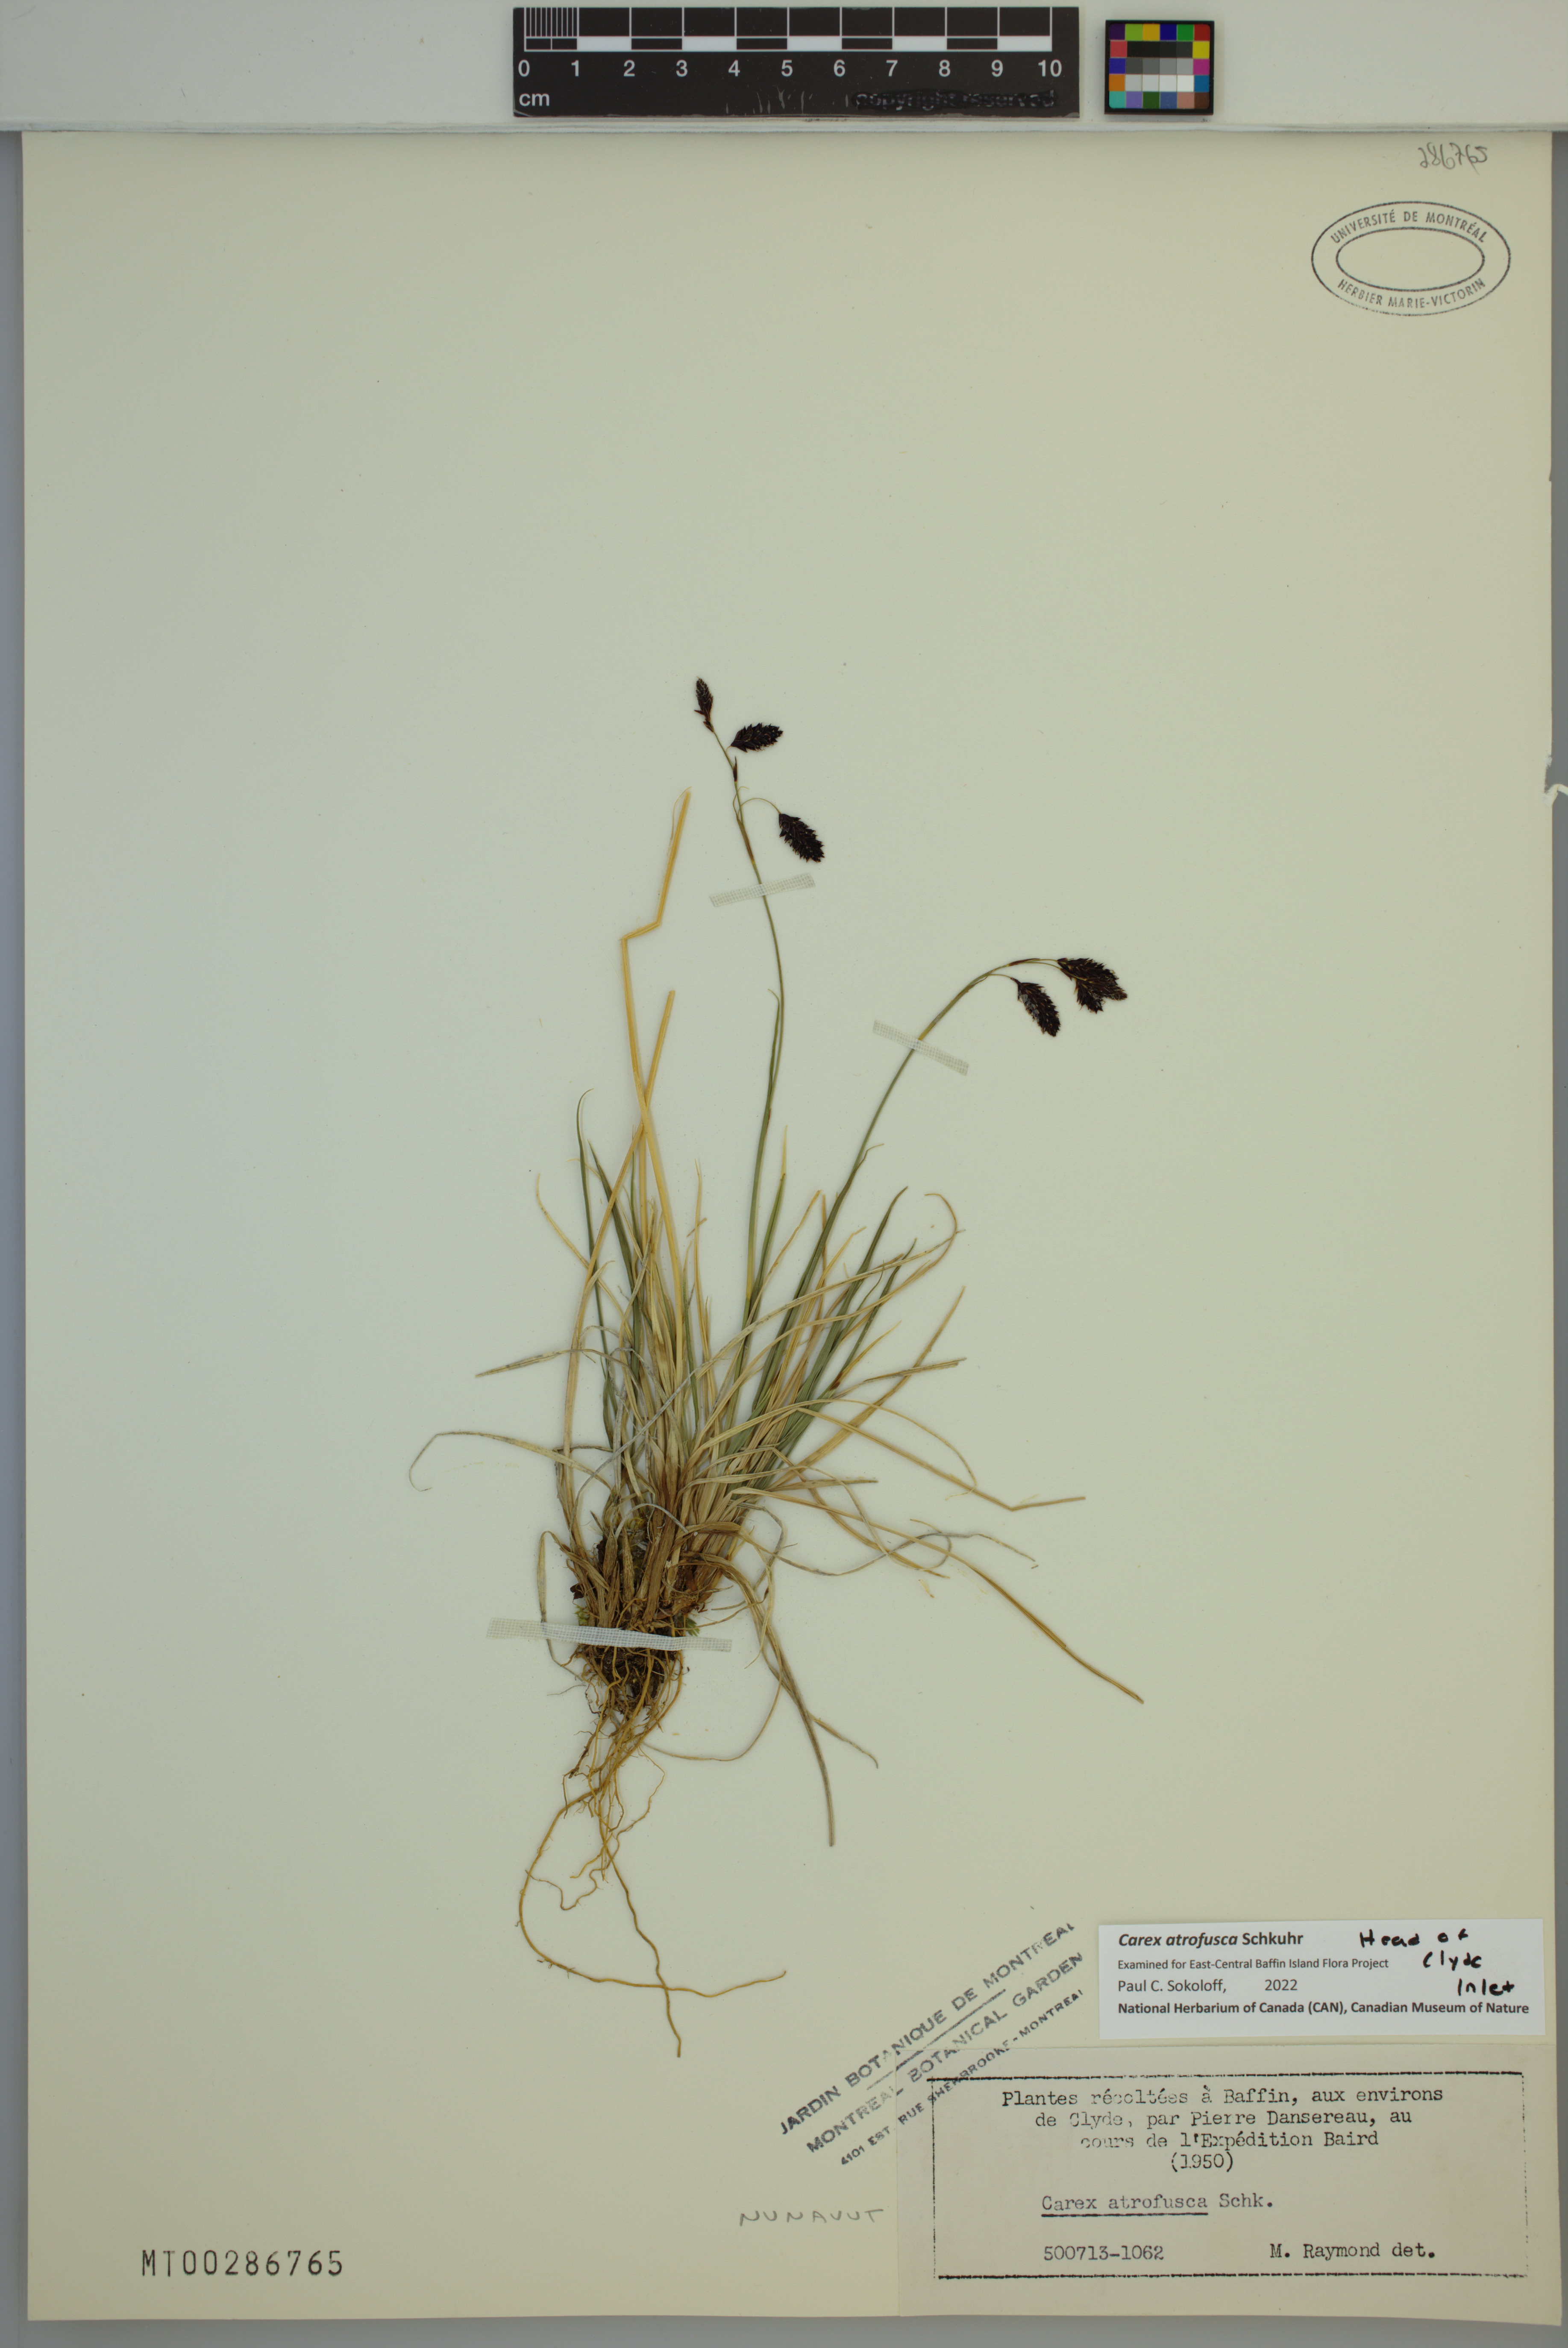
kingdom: Plantae
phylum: Tracheophyta
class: Liliopsida
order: Poales
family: Cyperaceae
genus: Carex
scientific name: Carex atrofusca
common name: Scorched alpine-sedge
